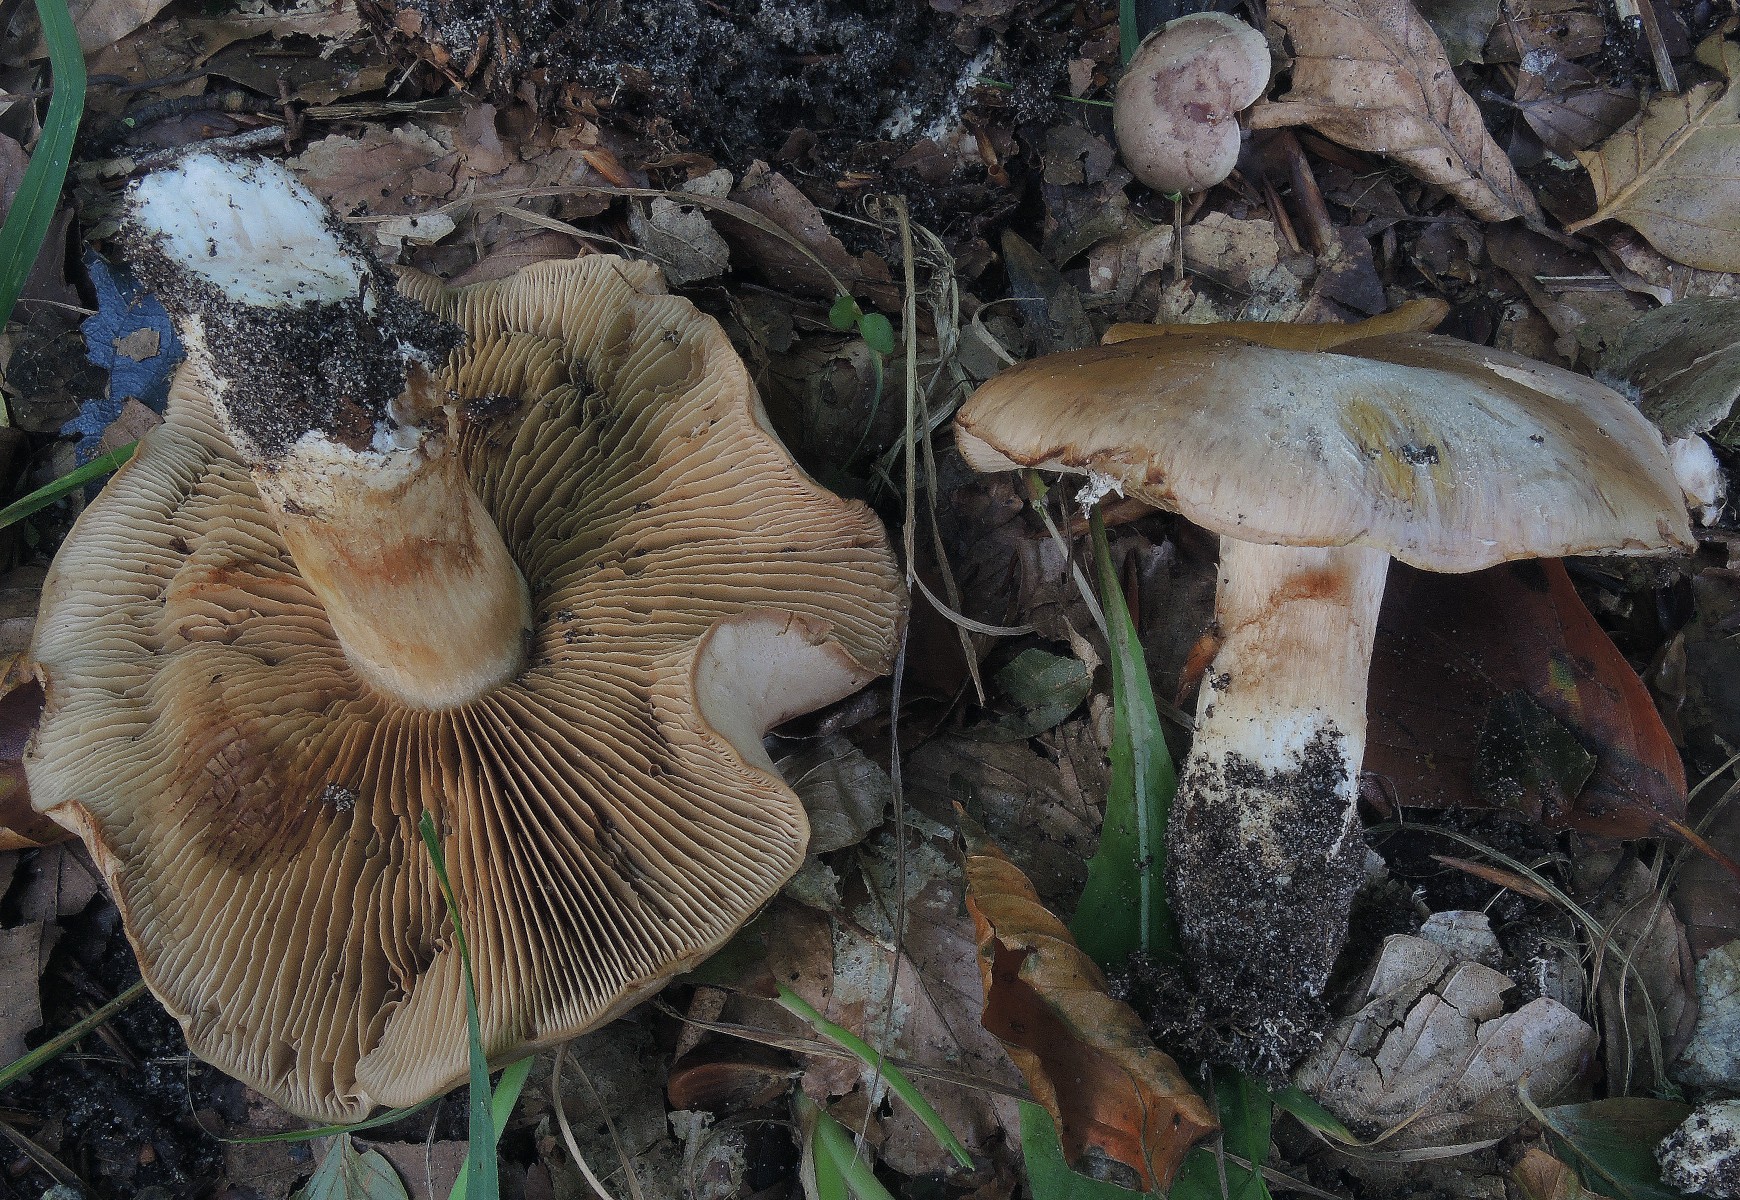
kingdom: Fungi
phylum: Basidiomycota
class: Agaricomycetes
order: Agaricales
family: Cortinariaceae
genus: Cortinarius
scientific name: Cortinarius variecolor
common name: violetagtig slørhat
